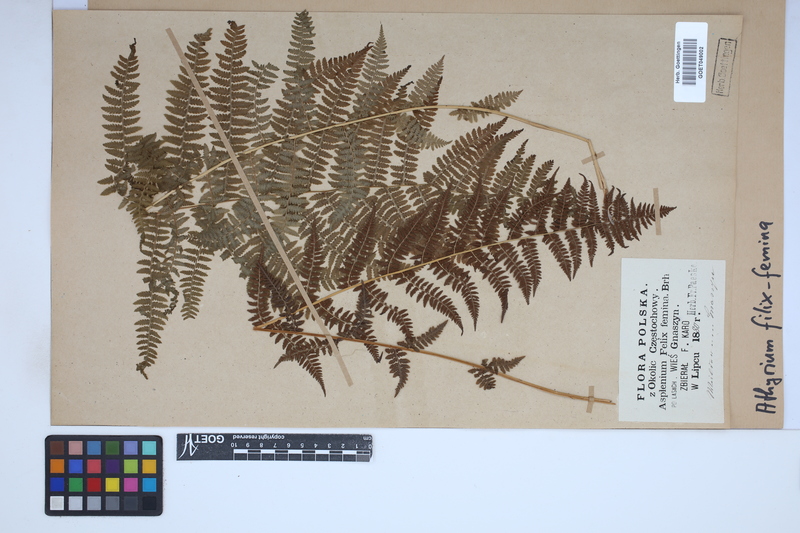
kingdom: Plantae
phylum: Tracheophyta
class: Polypodiopsida
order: Polypodiales
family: Athyriaceae
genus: Athyrium
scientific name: Athyrium filix-femina
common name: Lady fern
